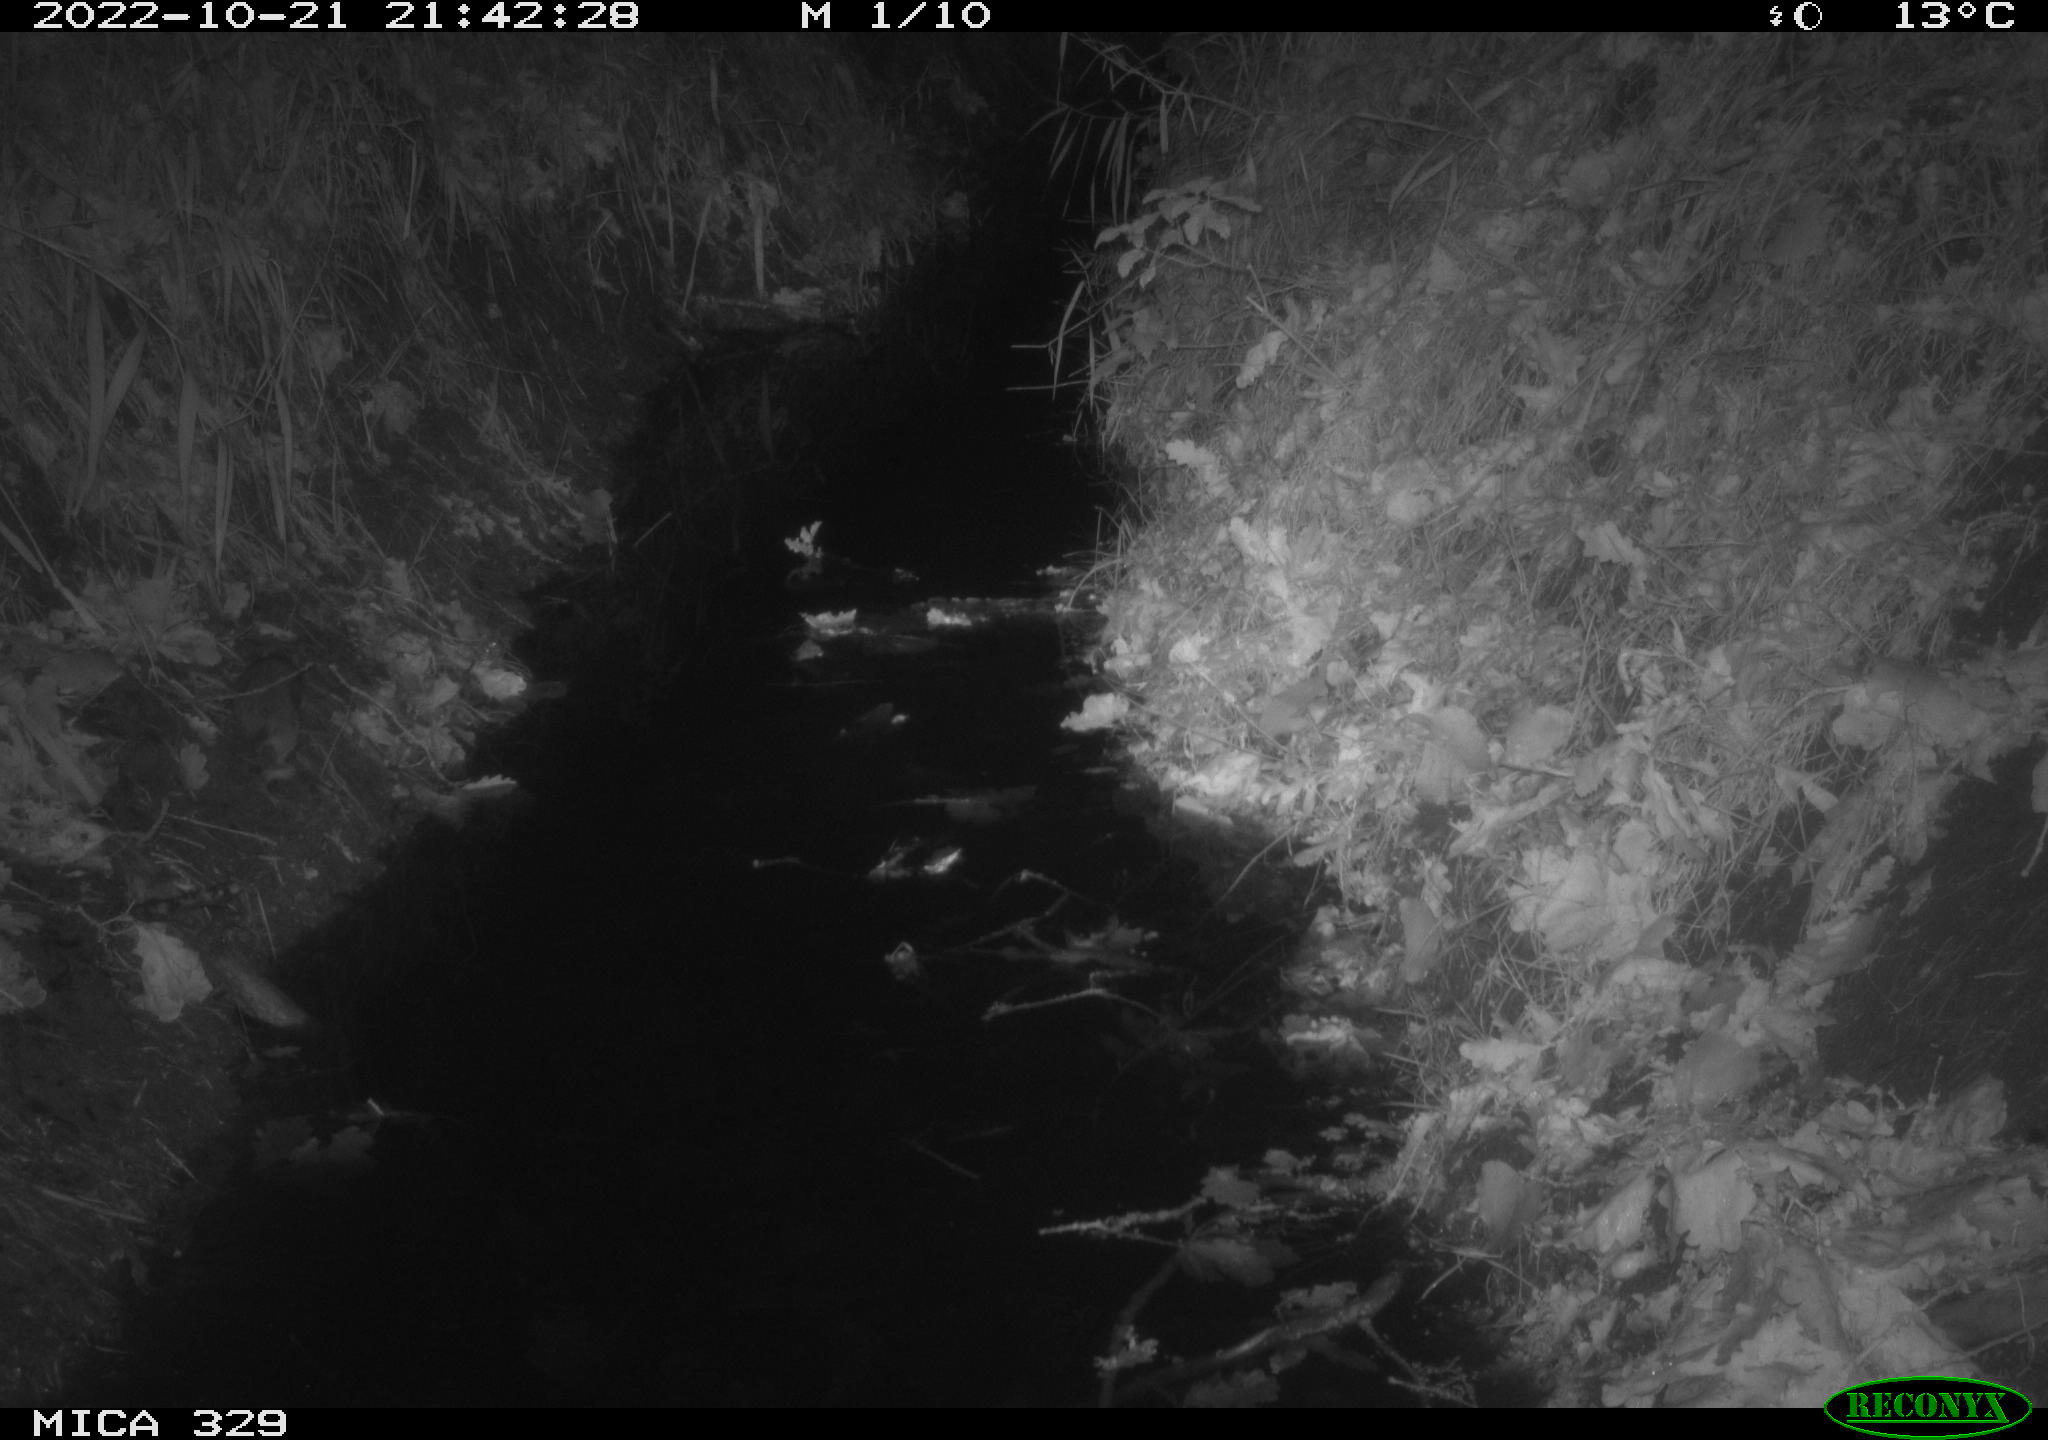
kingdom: Animalia
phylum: Chordata
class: Mammalia
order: Rodentia
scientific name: Rodentia
